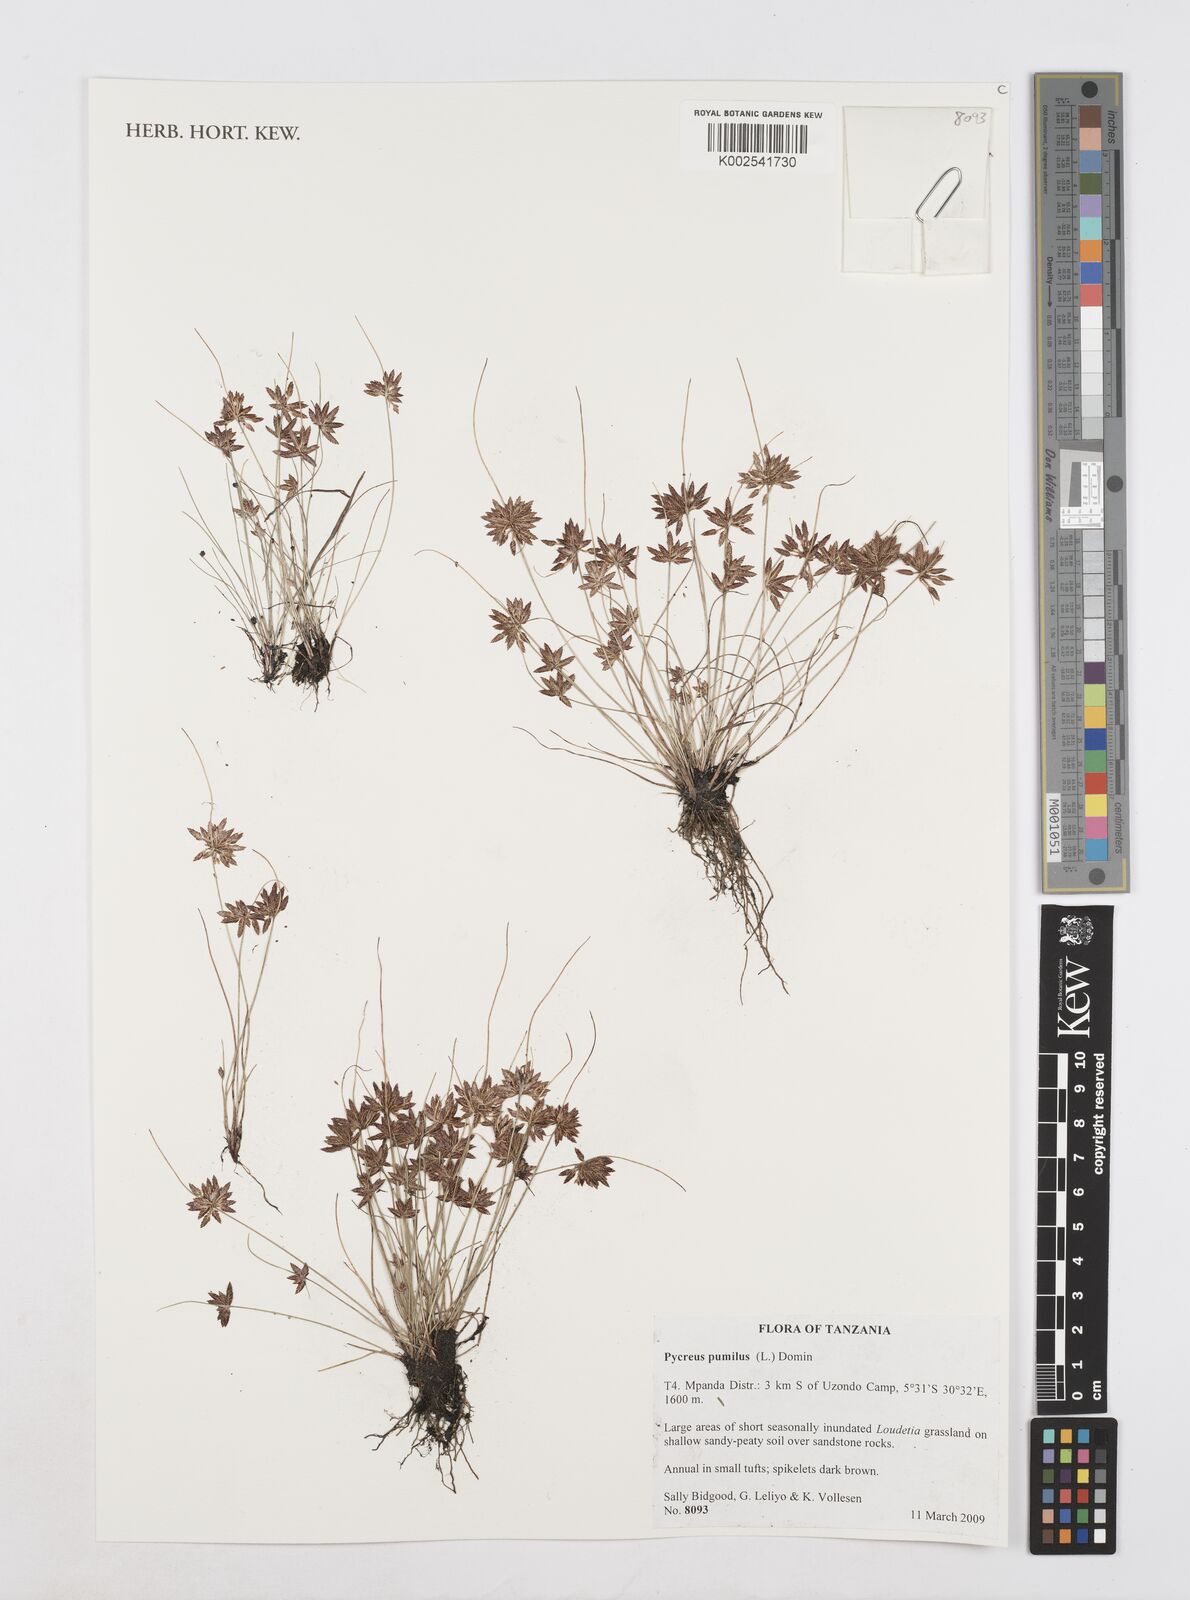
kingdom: Plantae
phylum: Tracheophyta
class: Liliopsida
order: Poales
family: Cyperaceae
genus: Cyperus
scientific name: Cyperus pumilus
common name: Low flatsedge
